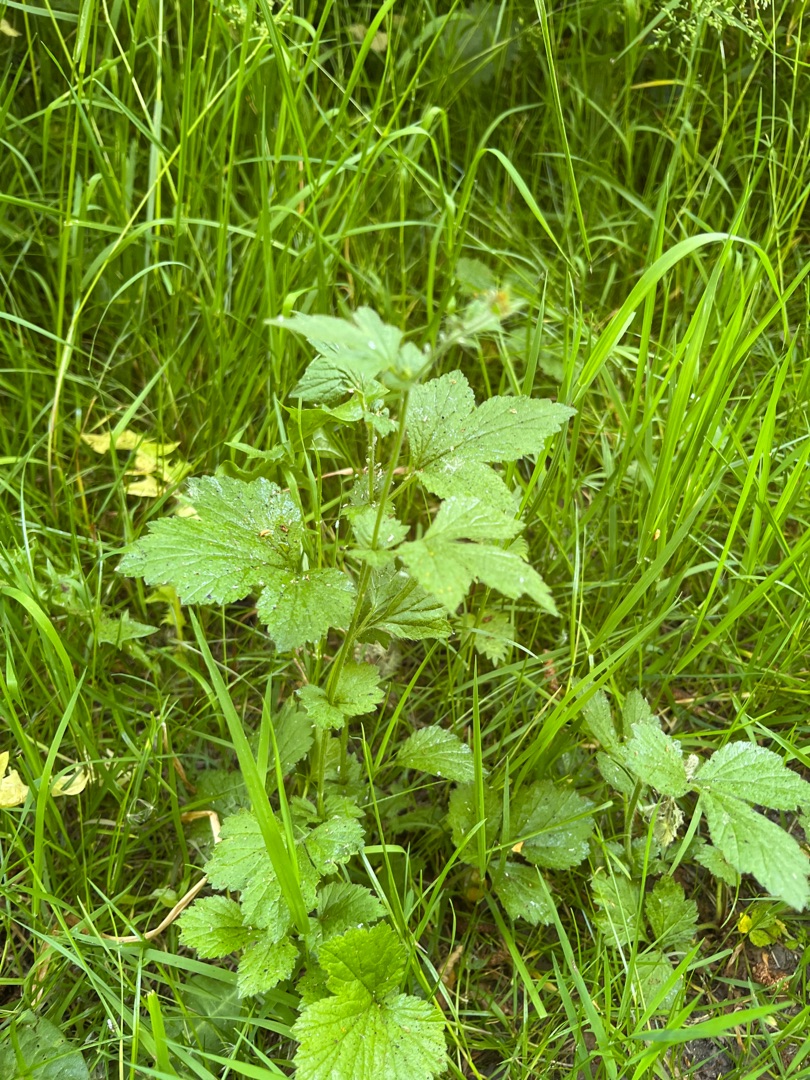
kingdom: Plantae
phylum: Tracheophyta
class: Magnoliopsida
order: Rosales
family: Rosaceae
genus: Geum
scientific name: Geum urbanum
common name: Feber-nellikerod
